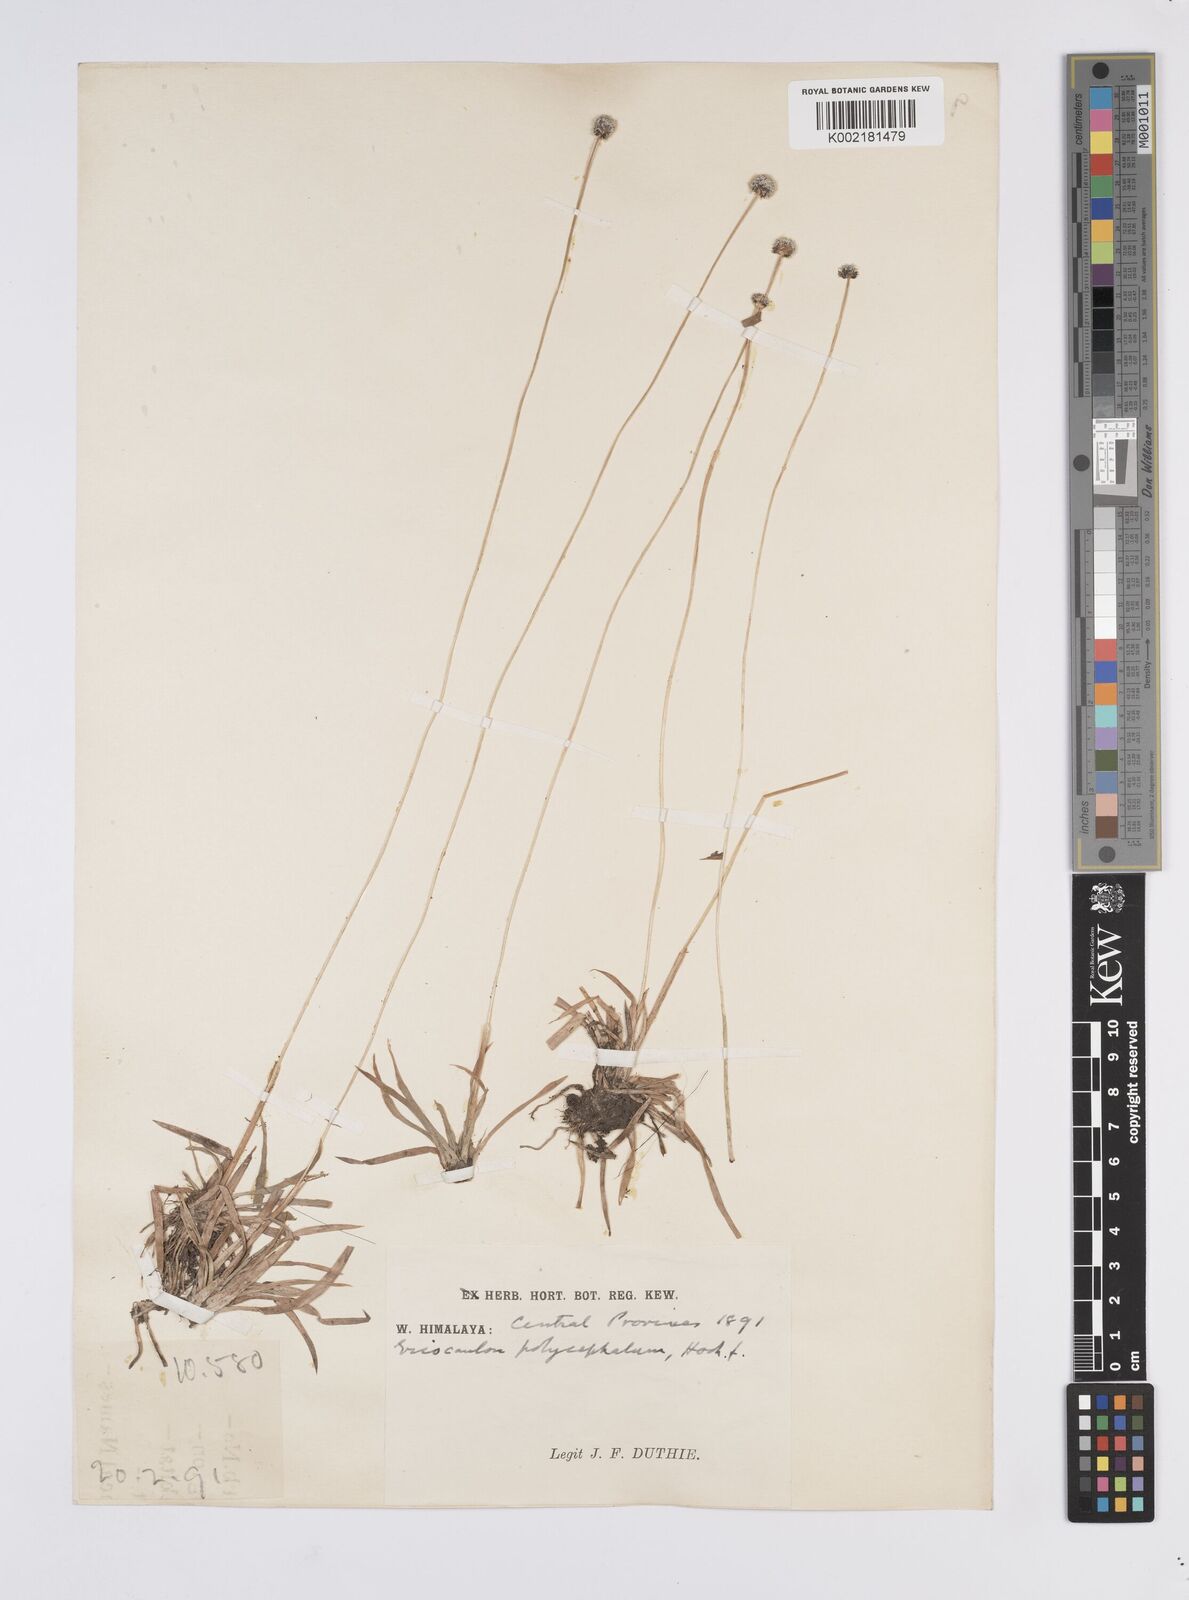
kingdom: Plantae
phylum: Tracheophyta
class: Liliopsida
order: Poales
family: Eriocaulaceae
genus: Eriocaulon
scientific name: Eriocaulon longicuspe
